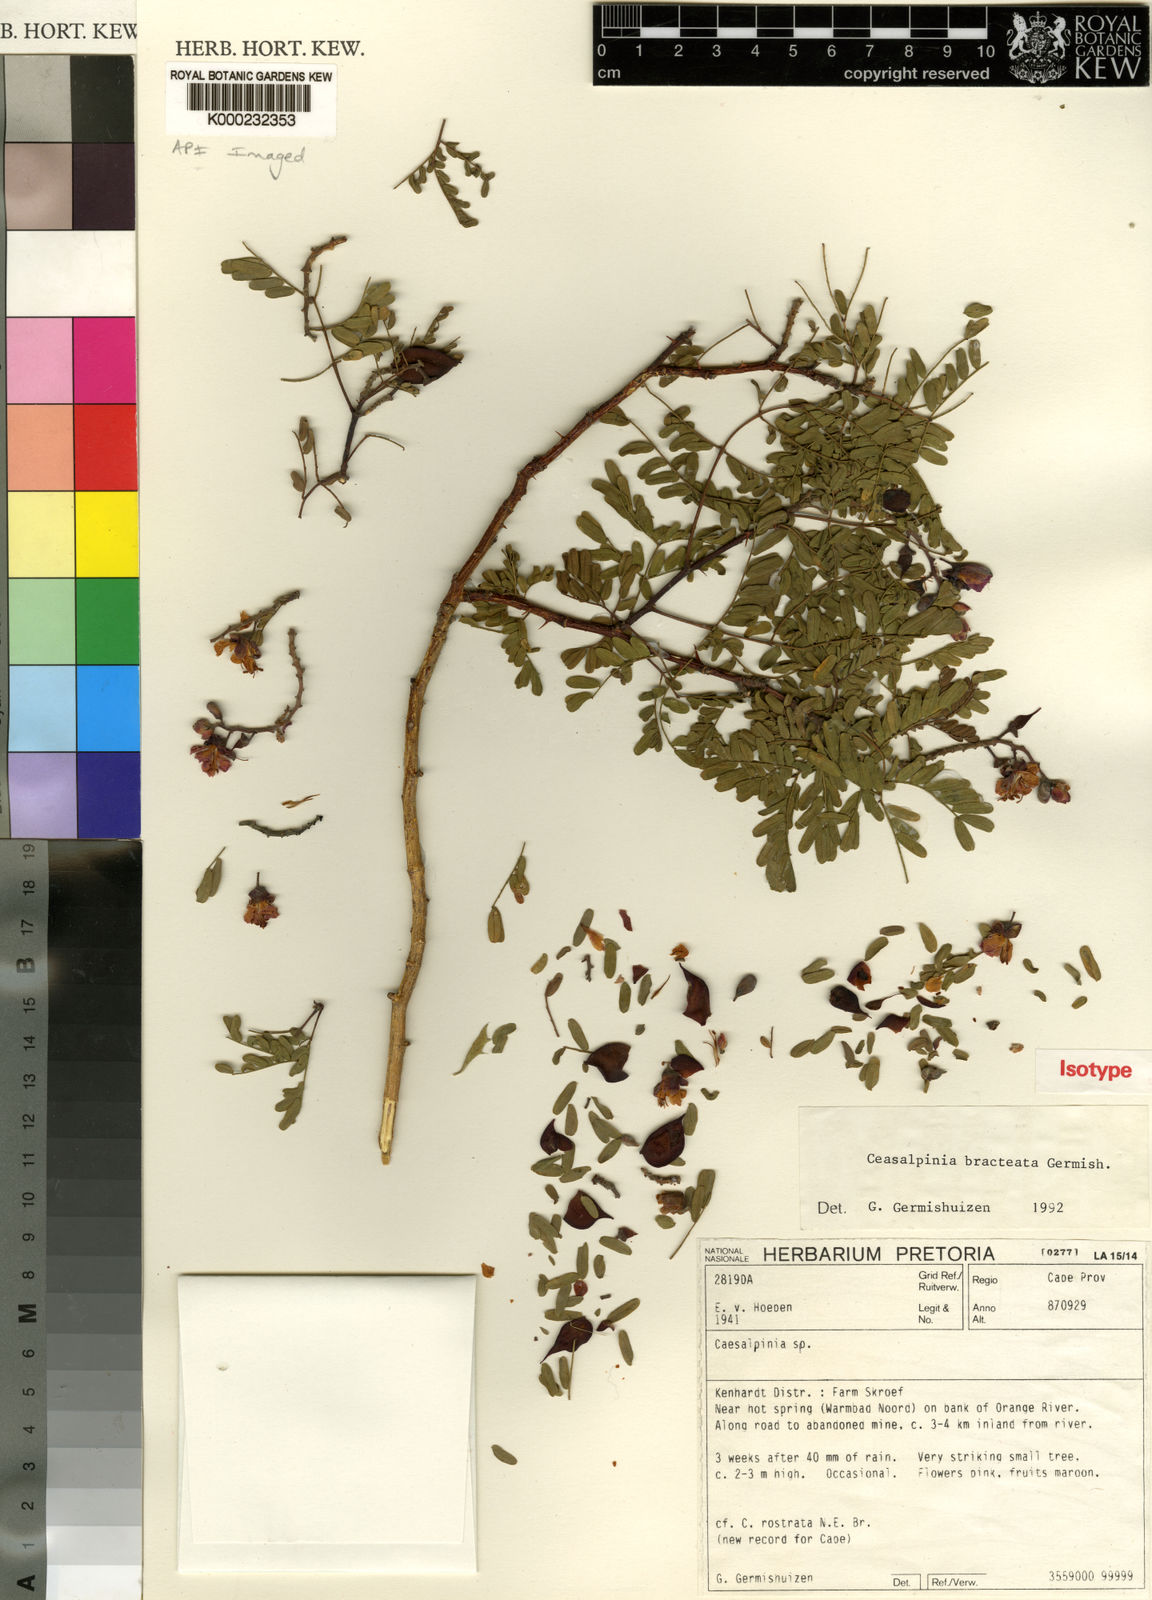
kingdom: Plantae
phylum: Tracheophyta
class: Magnoliopsida
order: Fabales
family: Fabaceae
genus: Gelrebia
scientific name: Gelrebia bracteata
